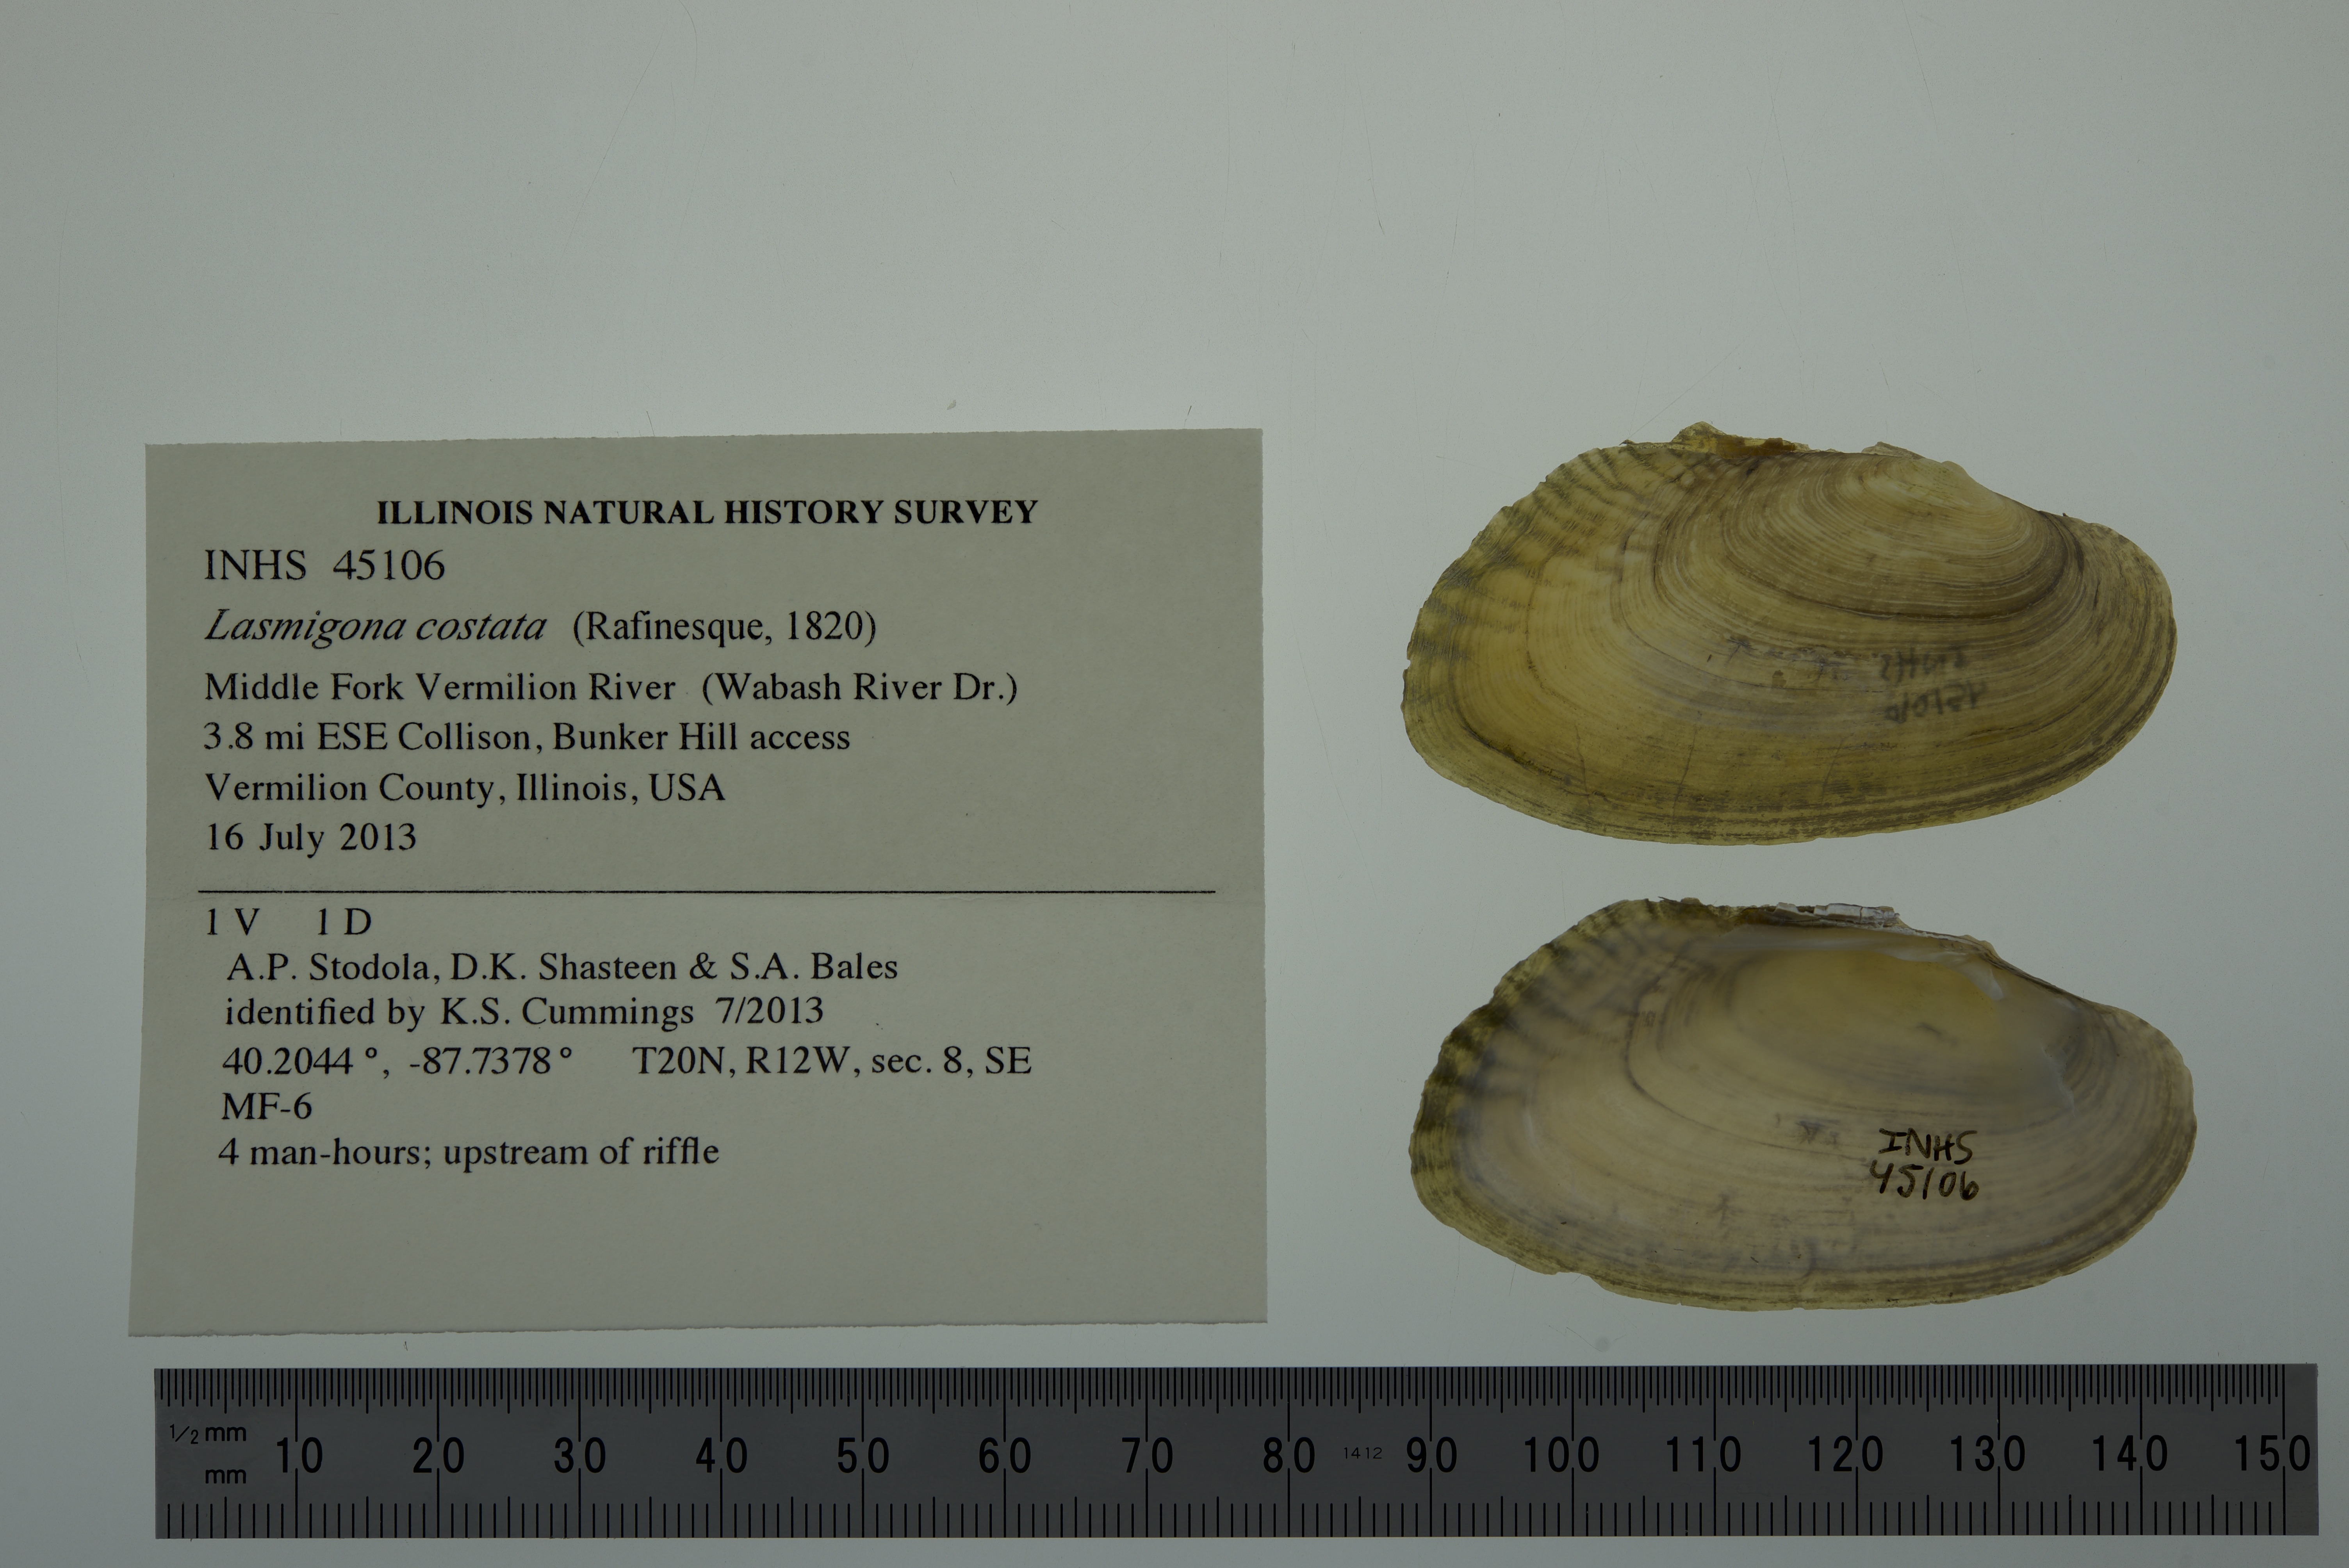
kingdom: Animalia
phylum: Mollusca
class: Bivalvia
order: Unionida
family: Unionidae
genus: Lasmigona
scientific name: Lasmigona costata
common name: Flutedshell
